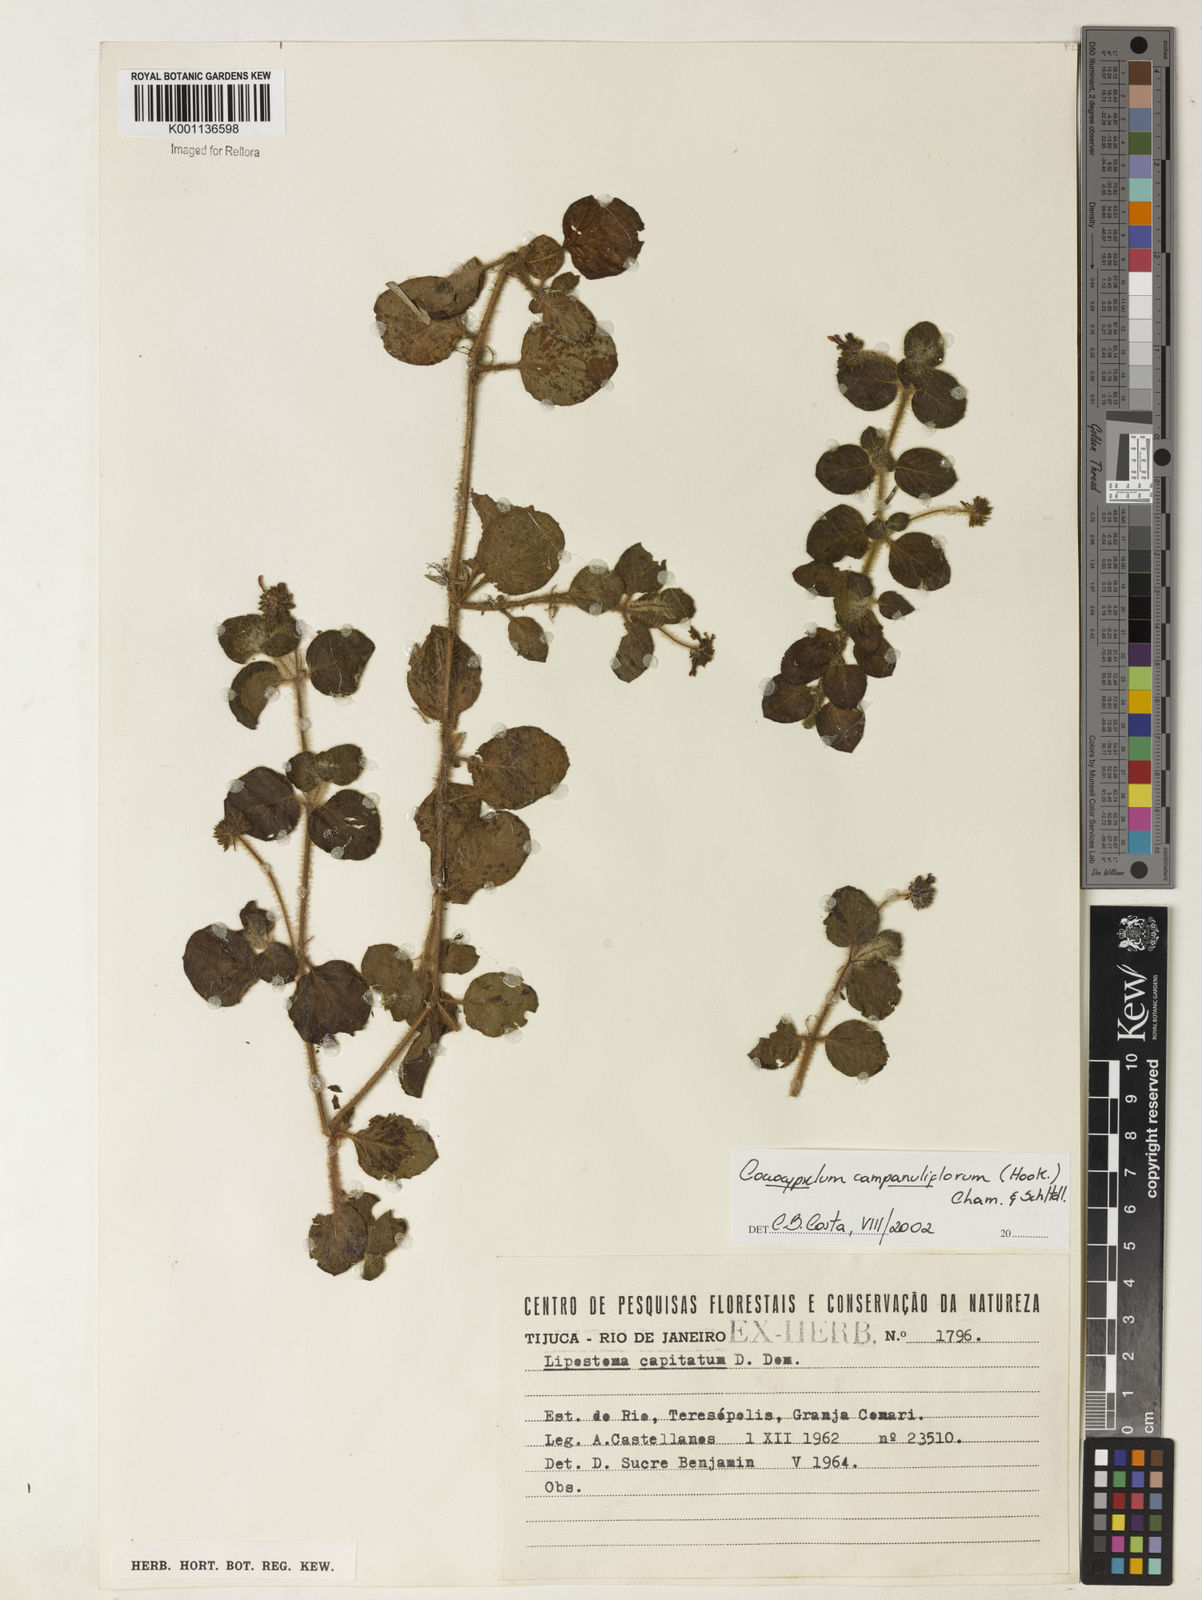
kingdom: Plantae
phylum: Tracheophyta
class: Magnoliopsida
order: Gentianales
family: Rubiaceae
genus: Coccocypselum
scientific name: Coccocypselum capitatum
